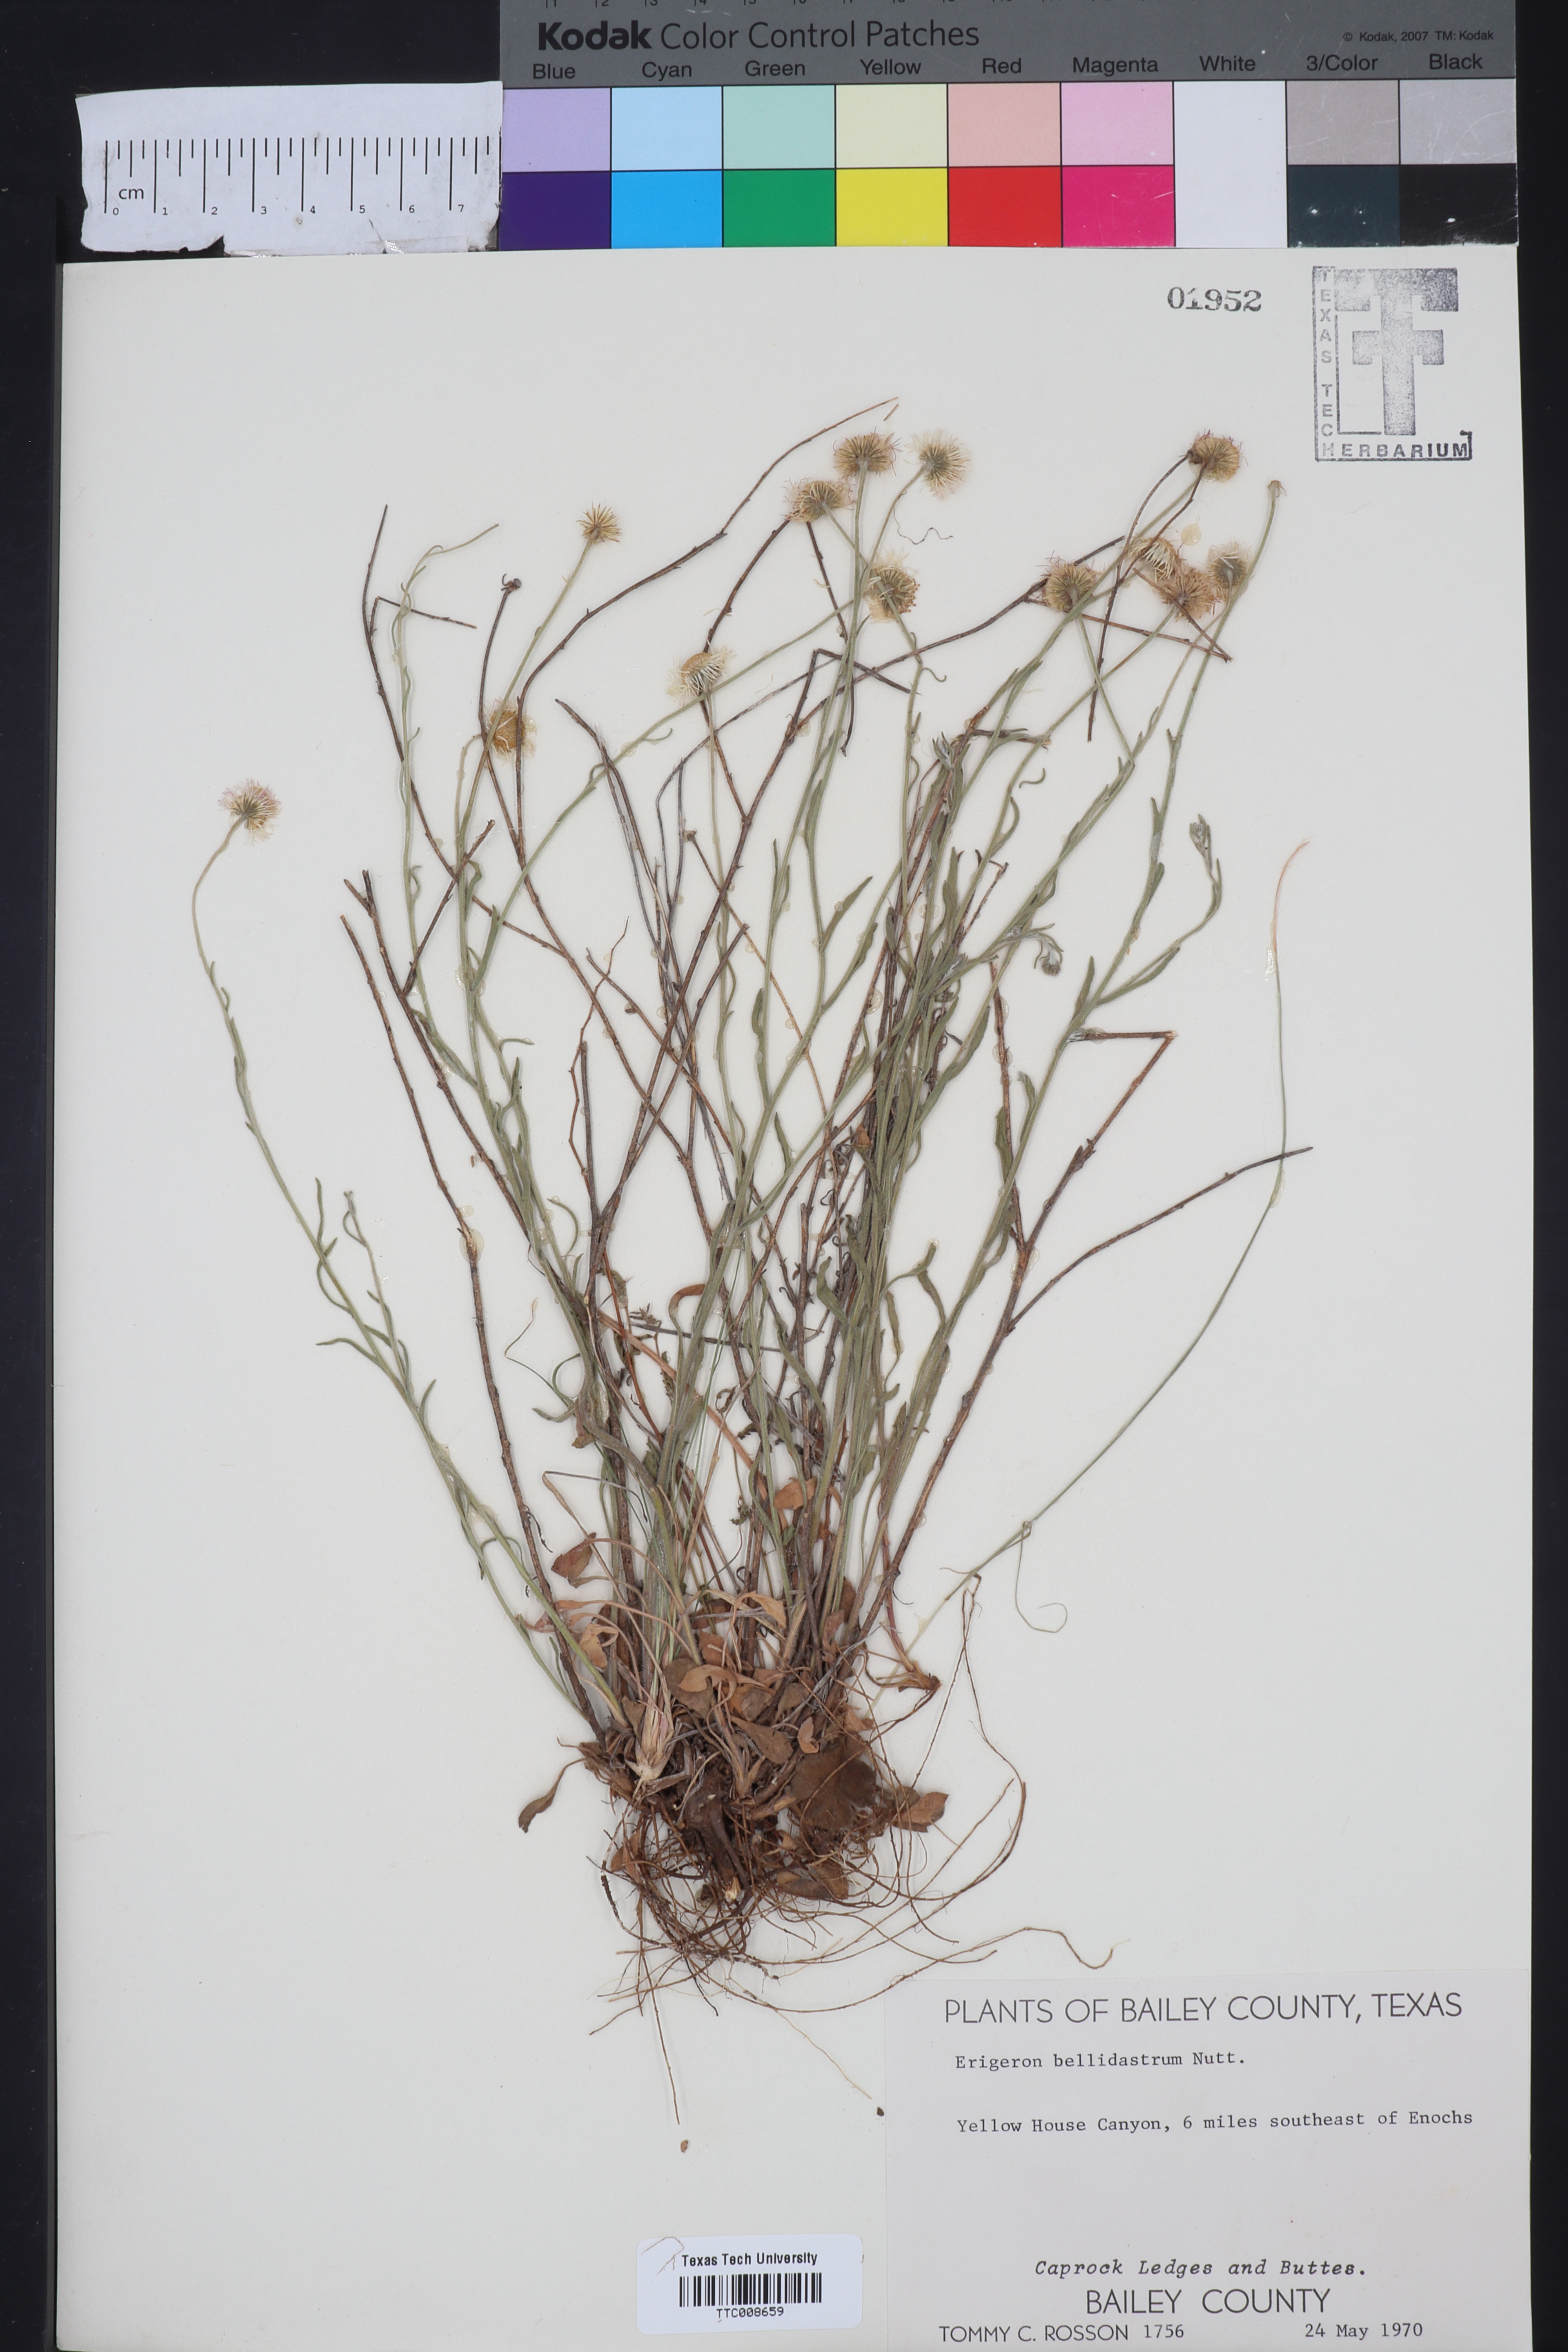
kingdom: Plantae
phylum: Tracheophyta
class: Magnoliopsida
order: Asterales
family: Asteraceae
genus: Erigeron
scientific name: Erigeron bellidiastrum
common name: Sand fleabane
